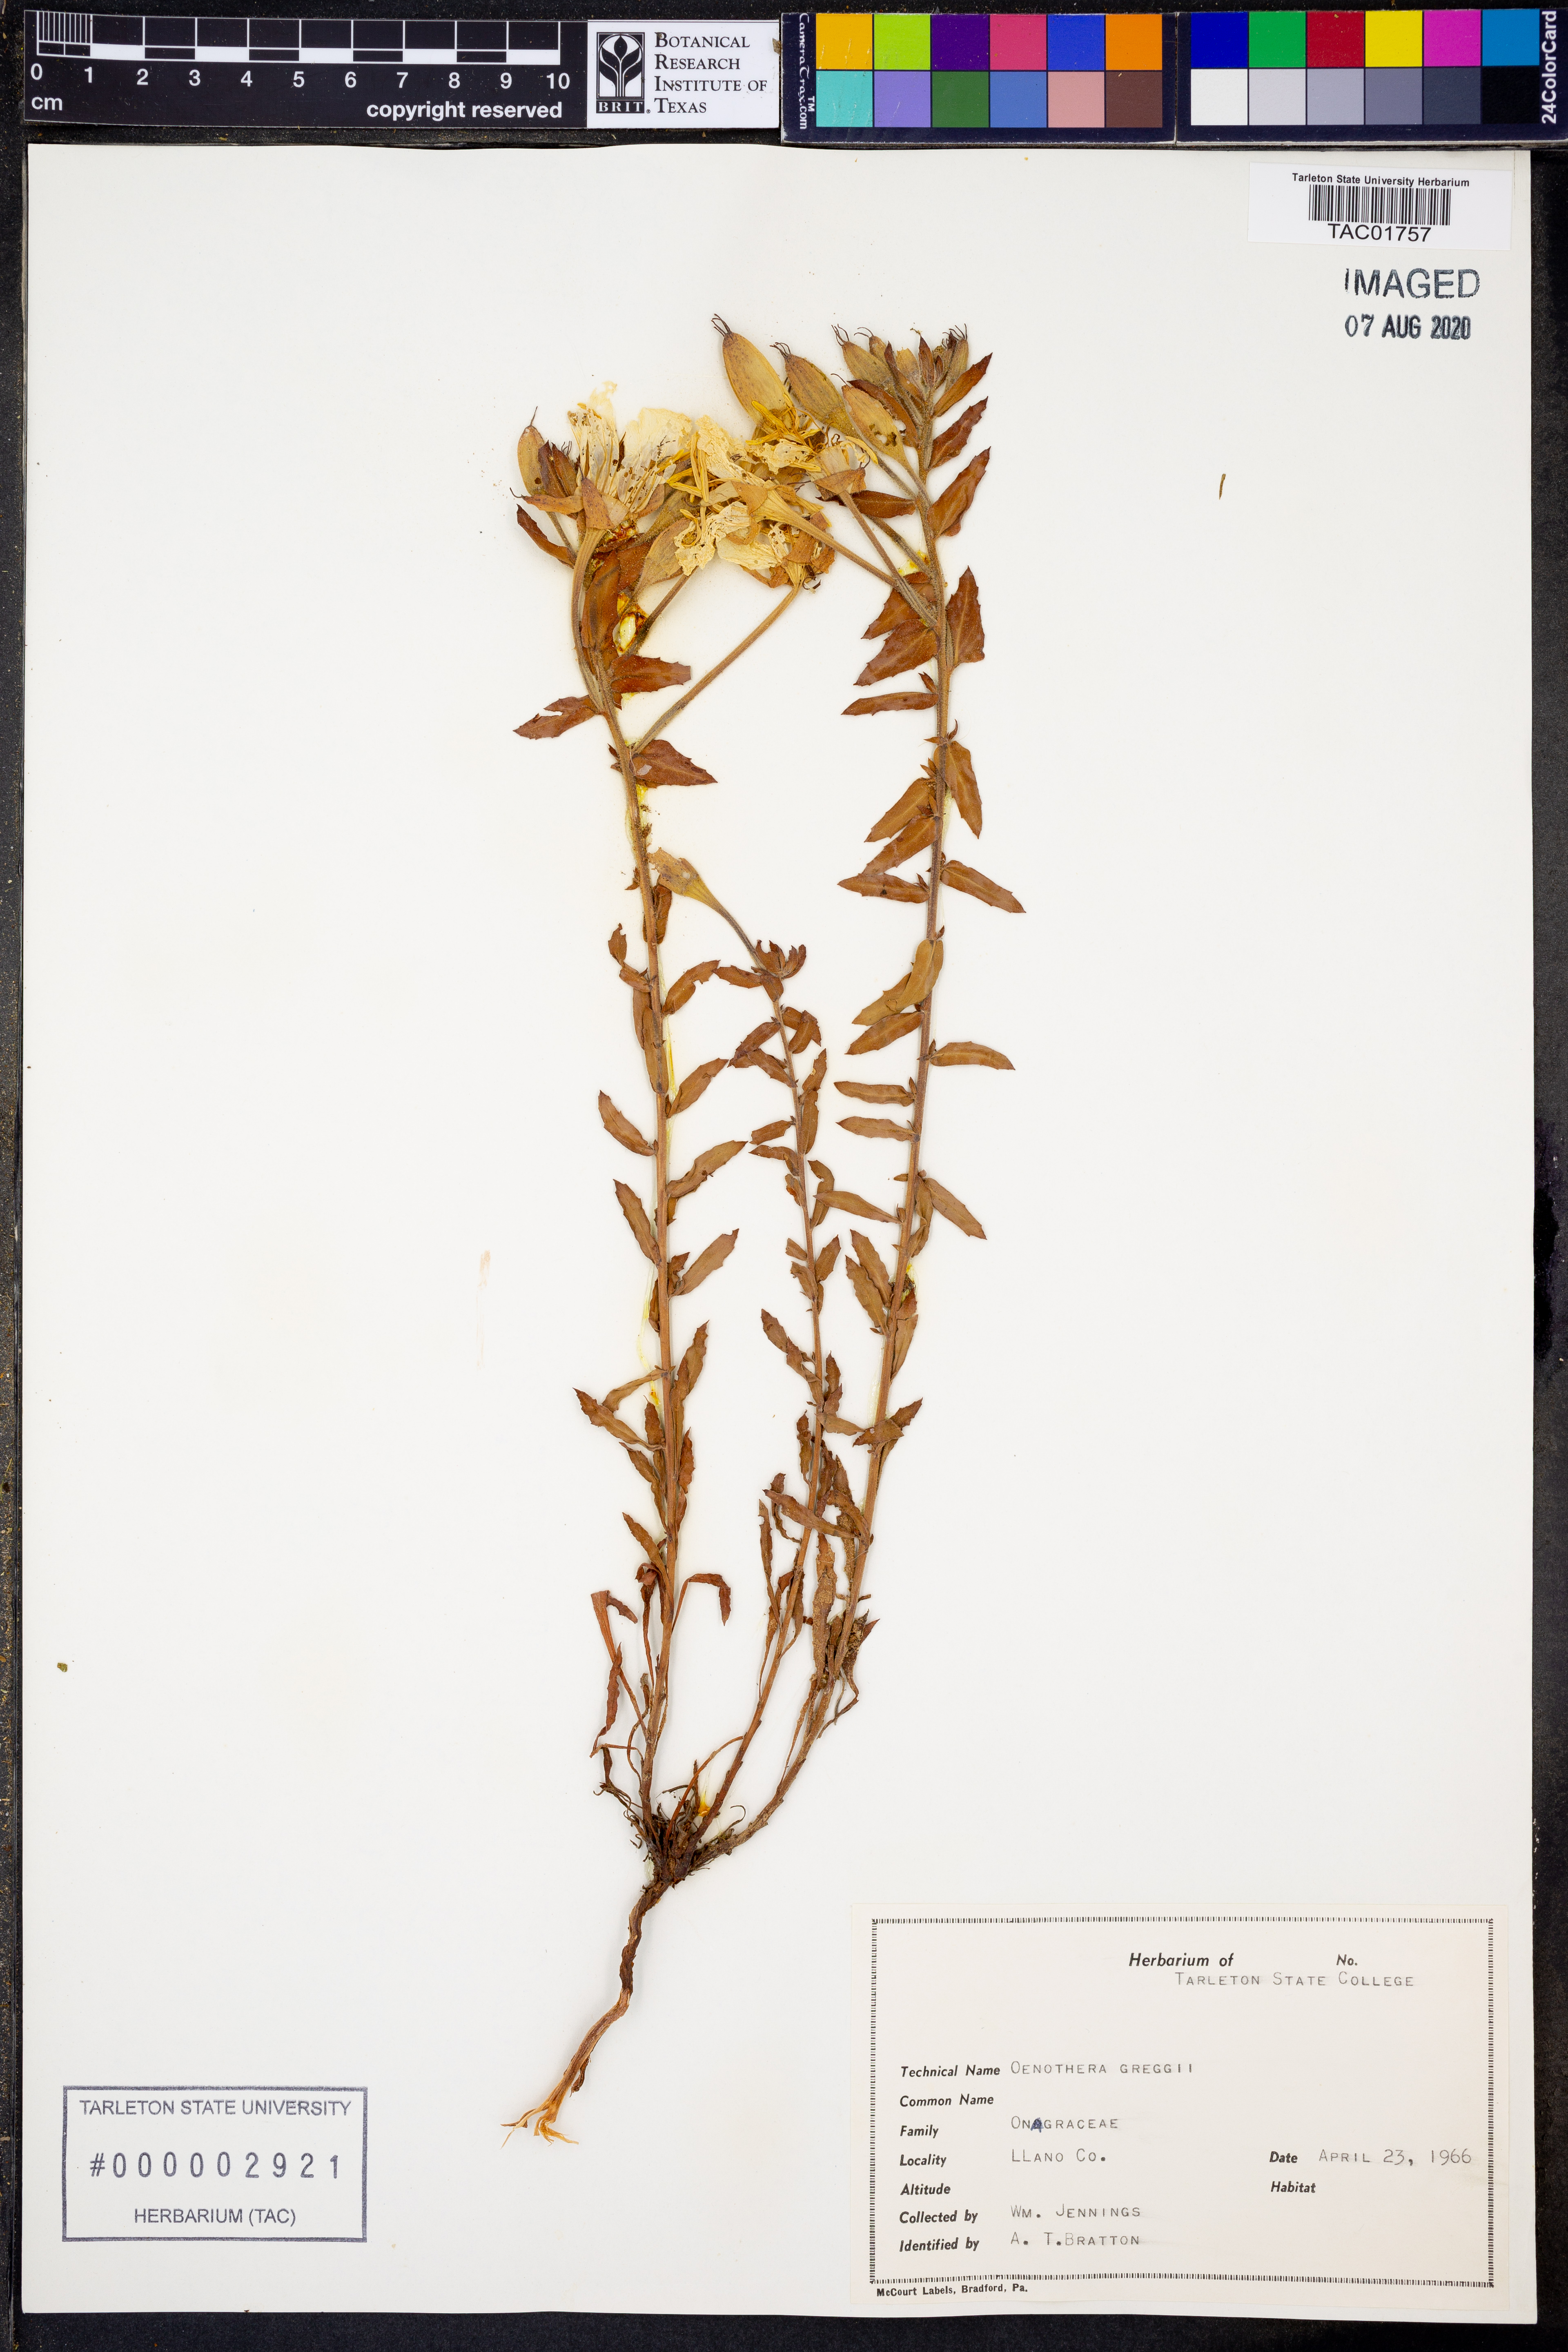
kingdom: Plantae
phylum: Tracheophyta
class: Magnoliopsida
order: Myrtales
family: Onagraceae
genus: Oenothera
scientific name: Oenothera hartwegii
